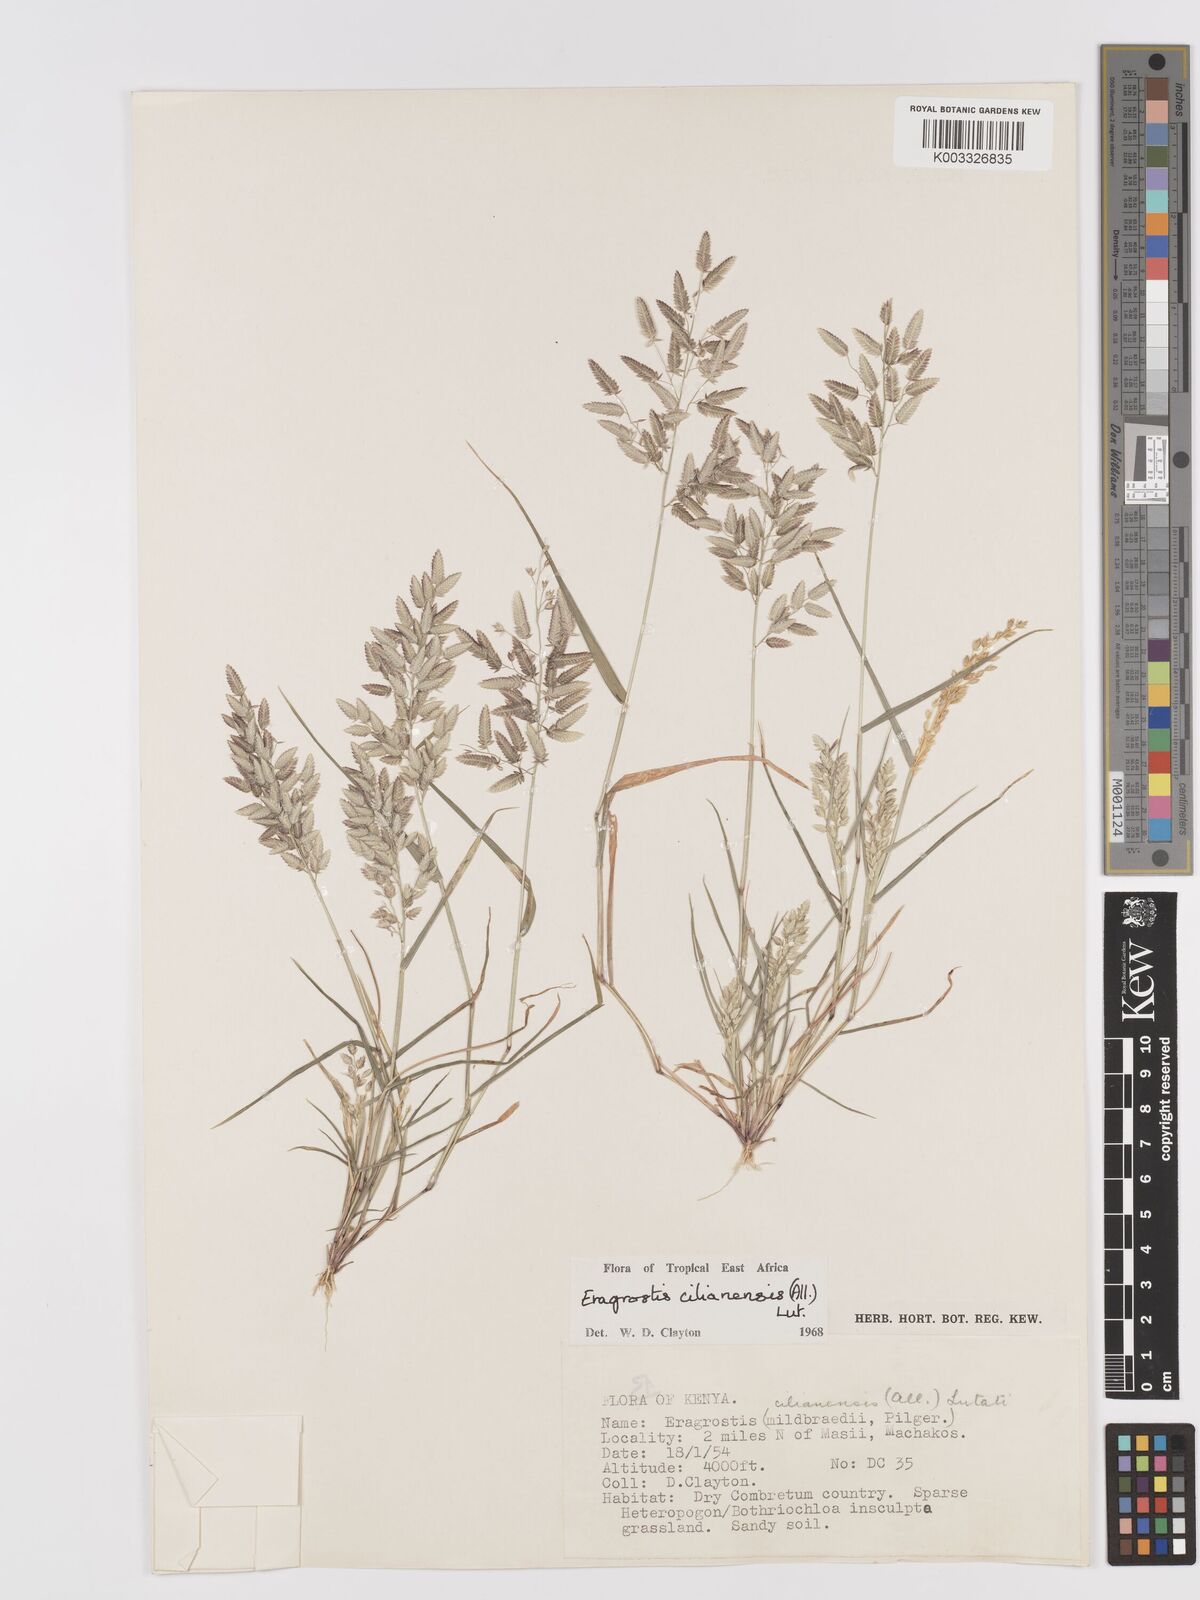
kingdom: Plantae
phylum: Tracheophyta
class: Liliopsida
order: Poales
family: Poaceae
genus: Eragrostis
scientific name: Eragrostis cilianensis
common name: Stinkgrass
